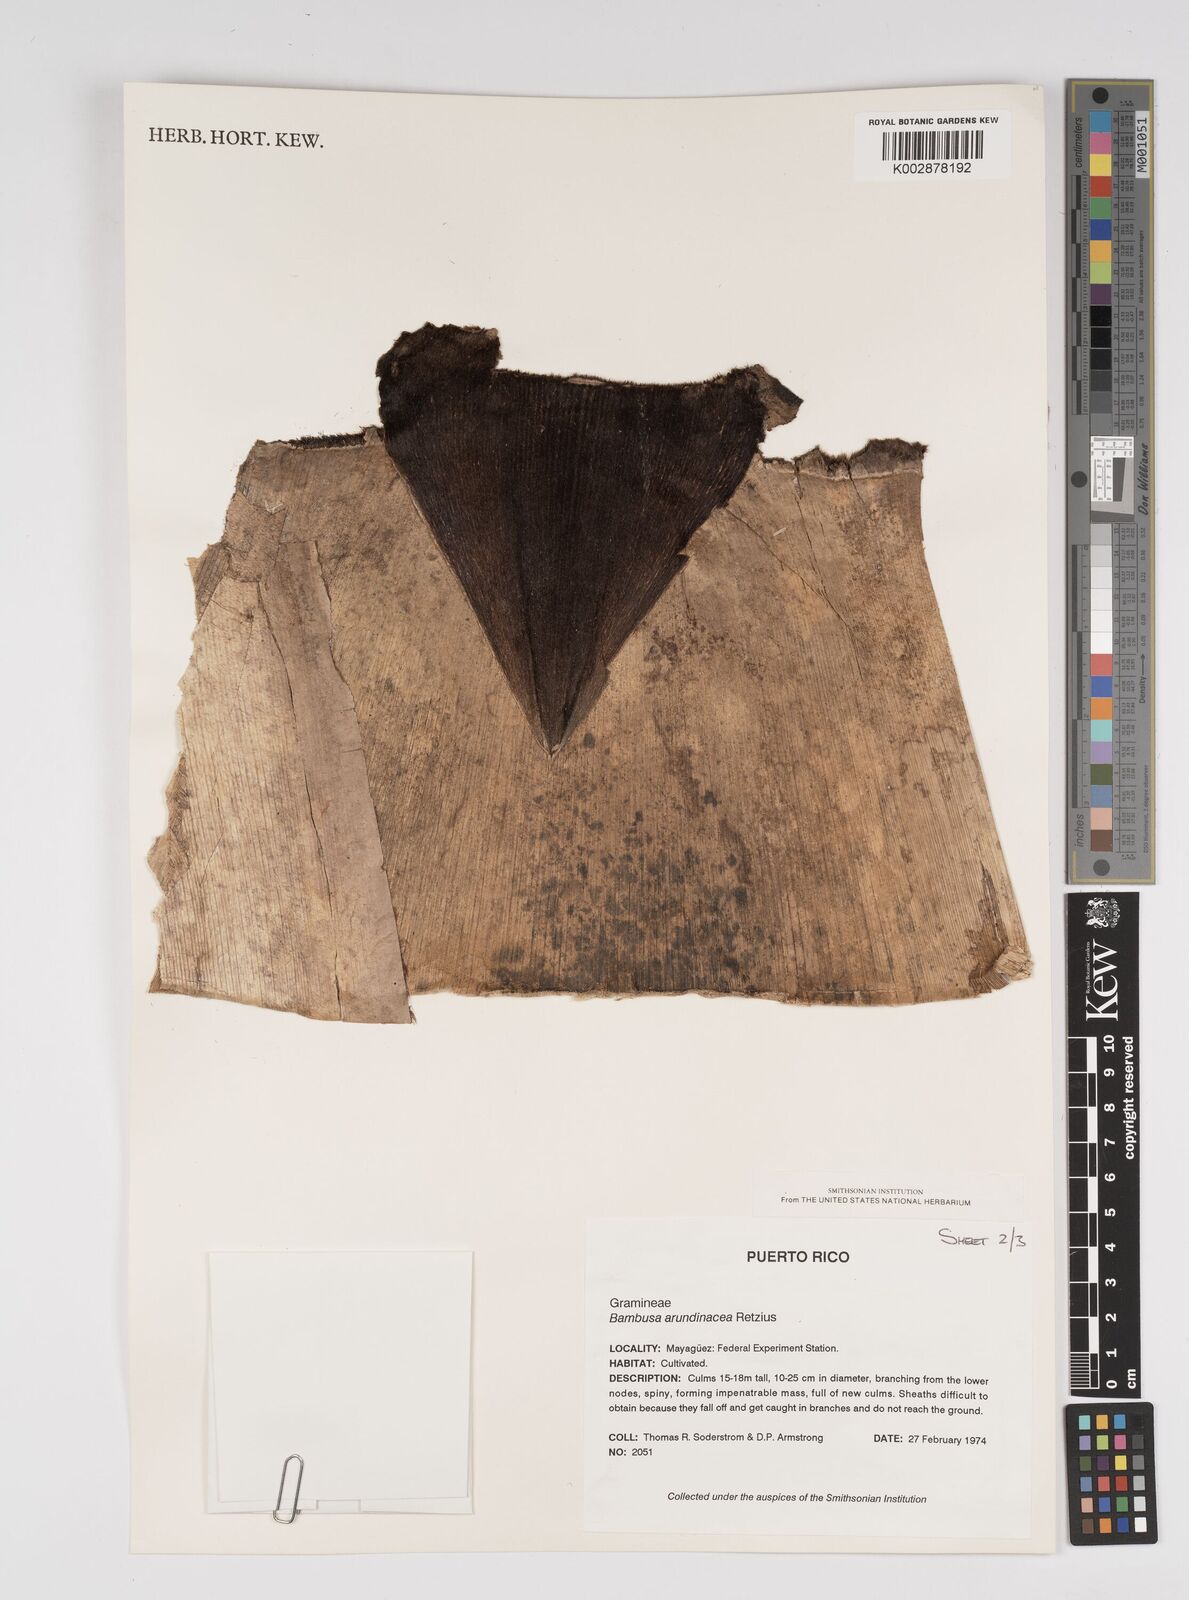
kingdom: Plantae
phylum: Tracheophyta
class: Liliopsida
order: Poales
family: Poaceae
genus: Bambusa
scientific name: Bambusa bambos
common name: Indian thorny bamboo
